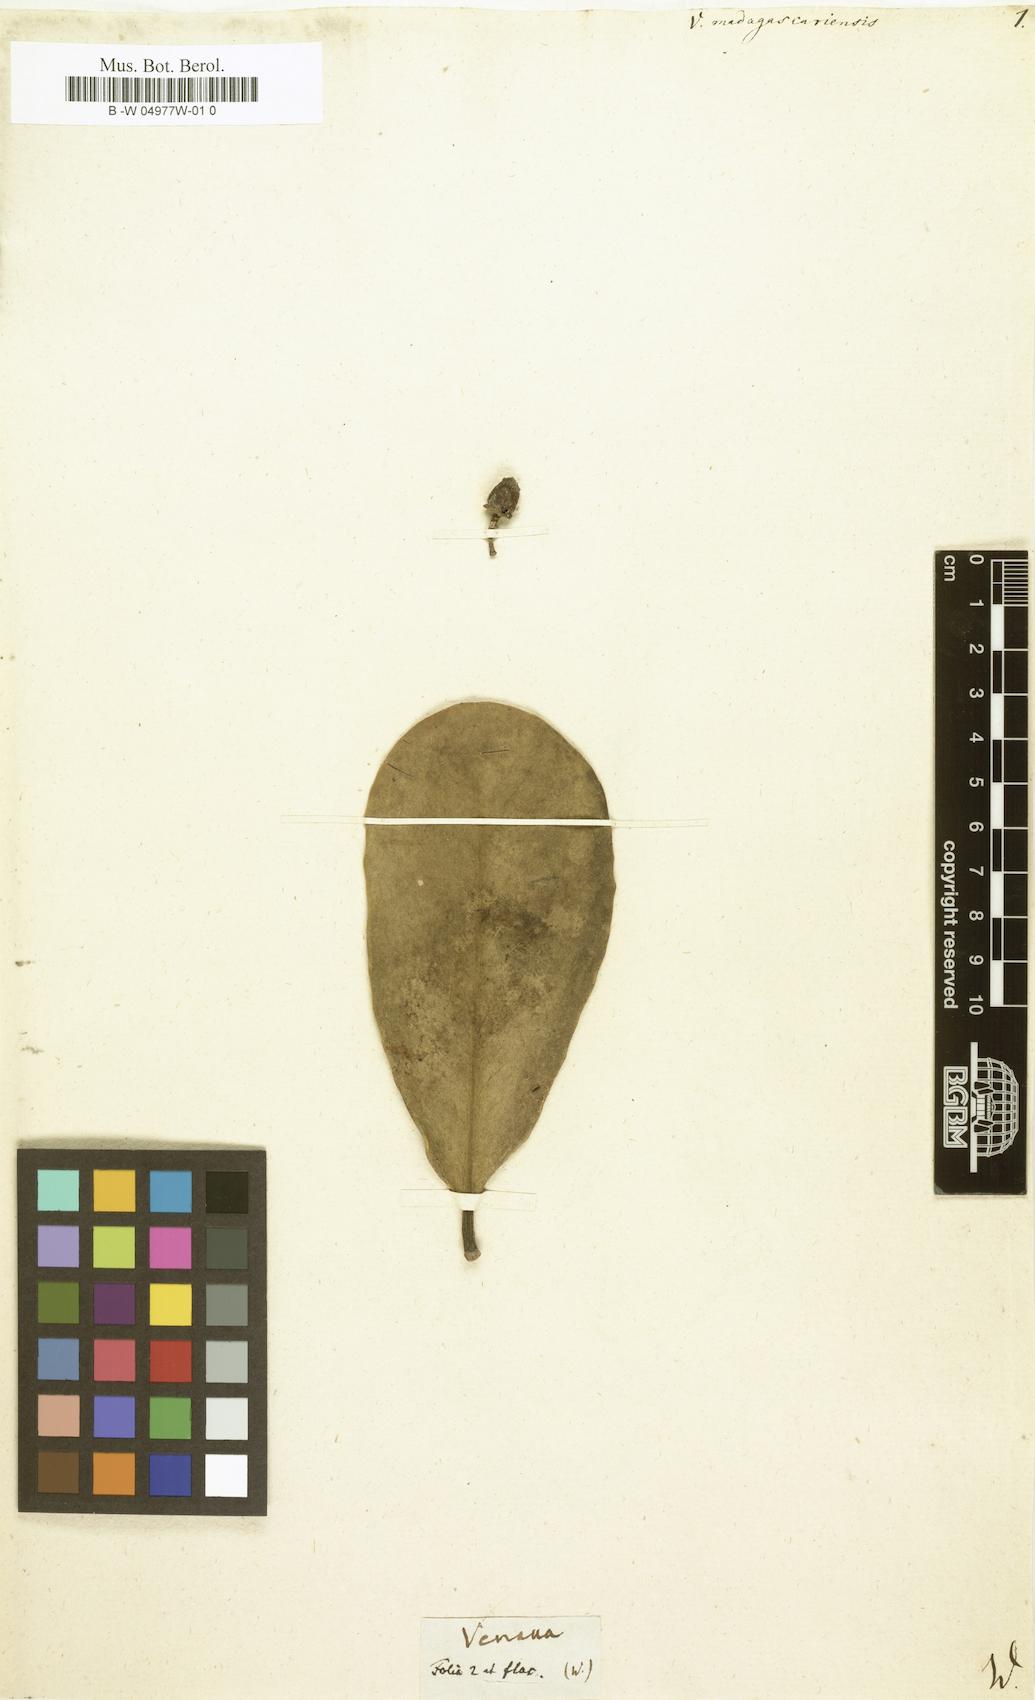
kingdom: Plantae
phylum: Tracheophyta
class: Magnoliopsida
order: Celastrales
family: Celastraceae
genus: Brexia
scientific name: Brexia madagascariensis
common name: Brexia
